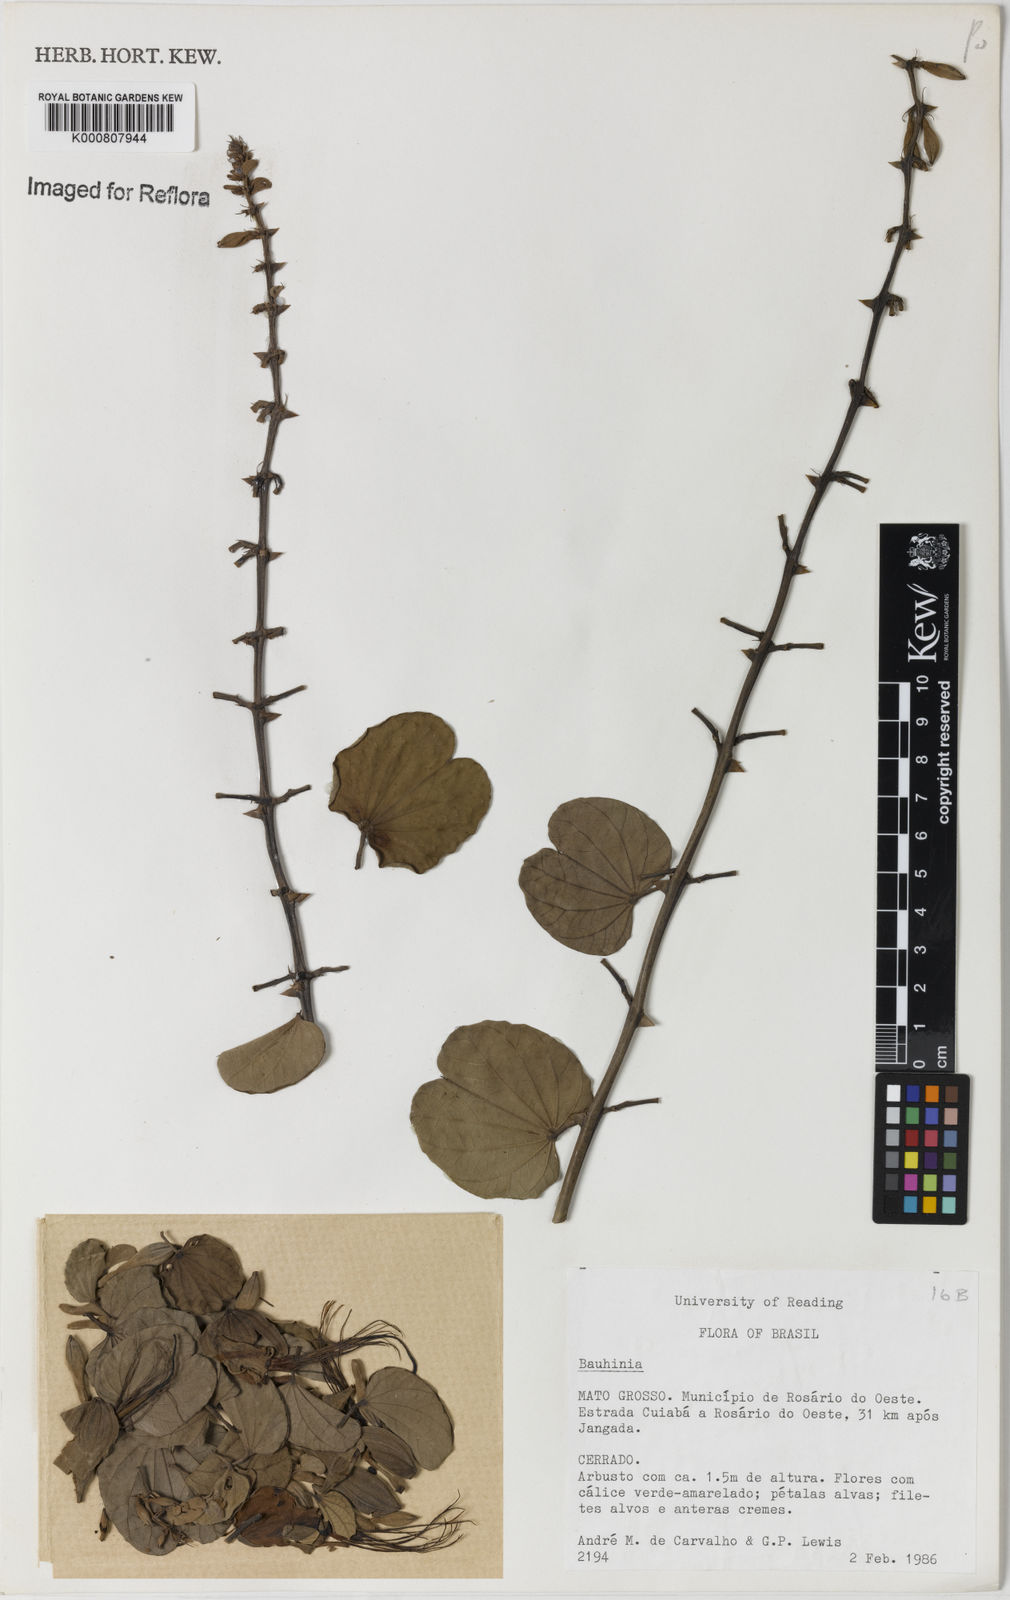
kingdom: Plantae
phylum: Tracheophyta
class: Magnoliopsida
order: Fabales
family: Fabaceae
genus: Bauhinia
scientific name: Bauhinia
